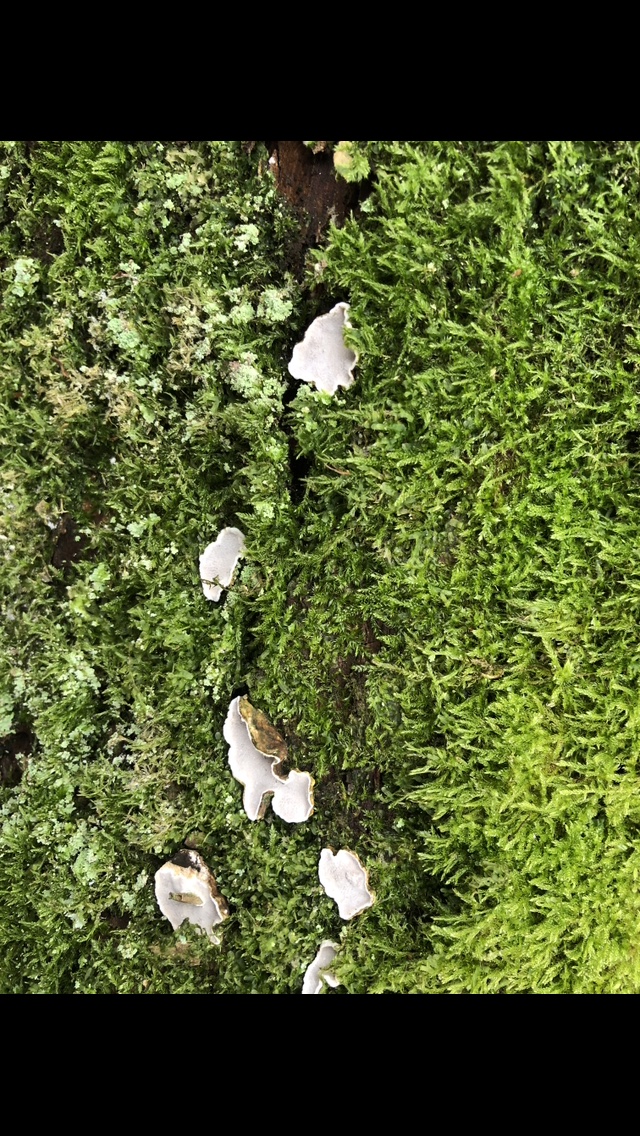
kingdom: Fungi
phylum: Basidiomycota
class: Agaricomycetes
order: Russulales
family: Stereaceae
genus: Aleurodiscus
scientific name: Aleurodiscus disciformis
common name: hvidlig skiveskorpe
